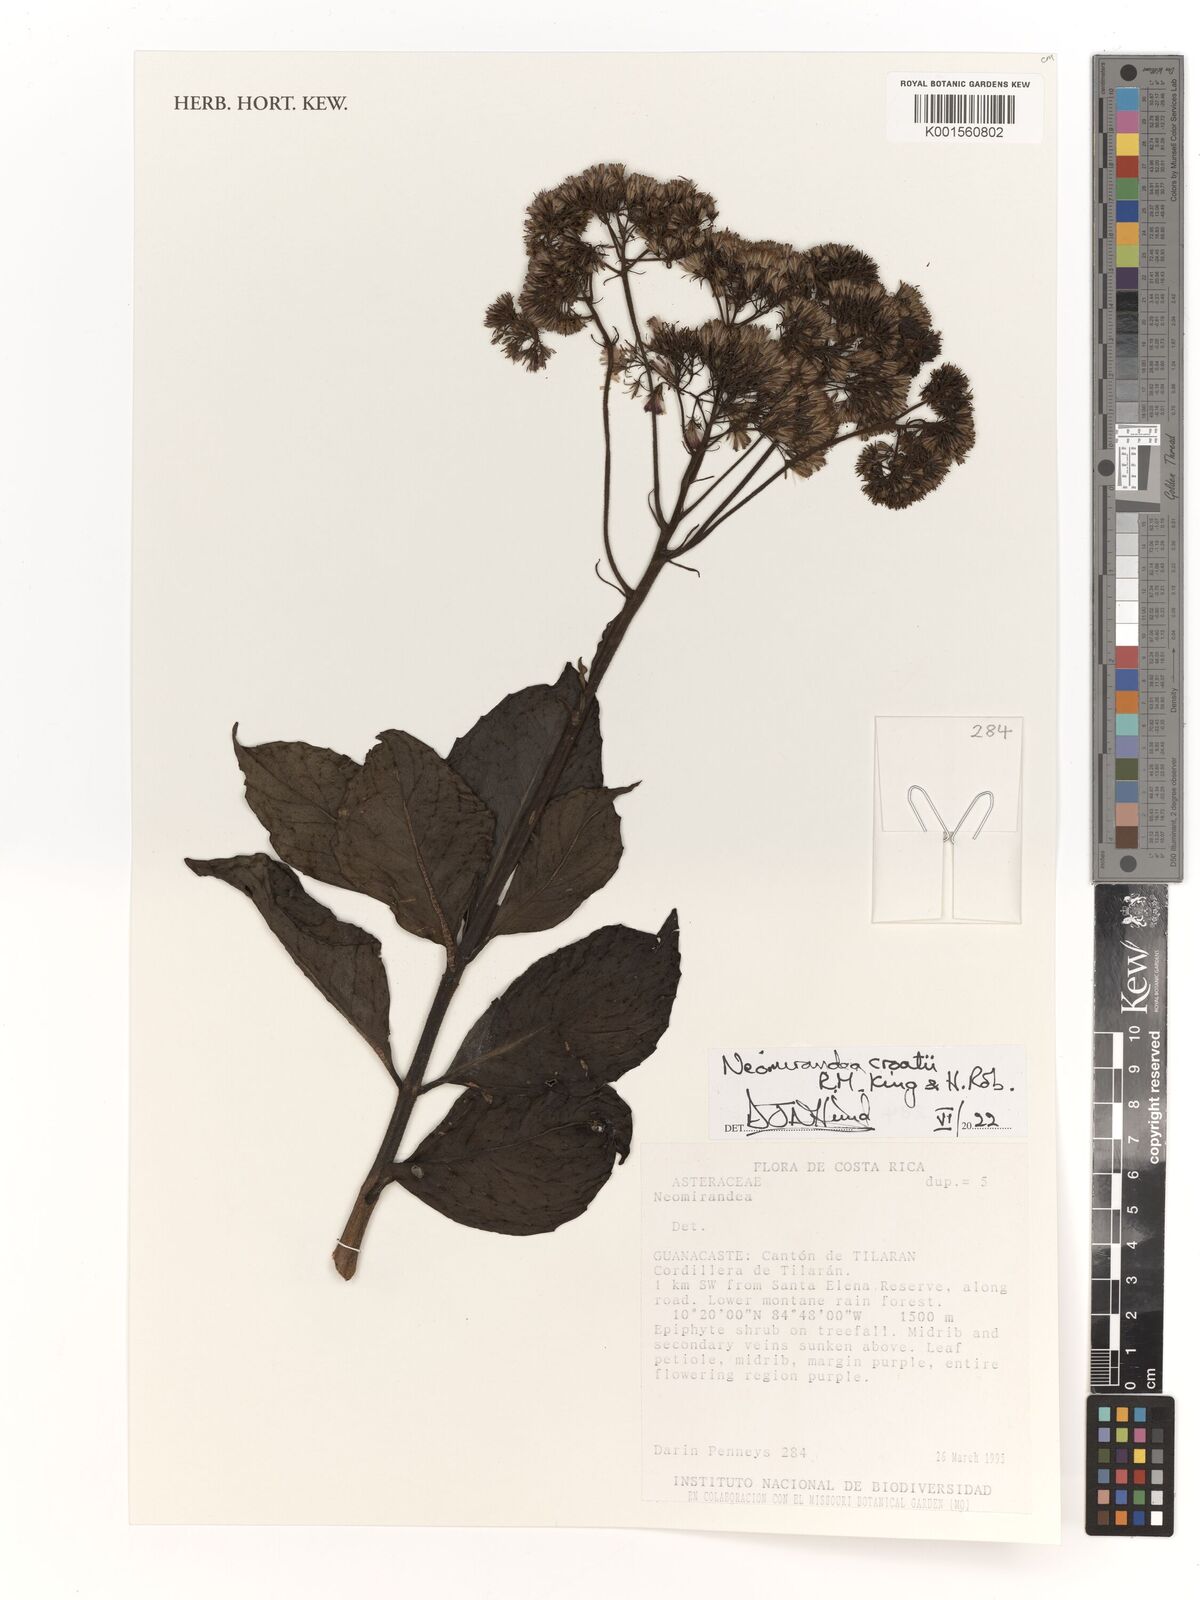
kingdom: Plantae
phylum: Tracheophyta
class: Magnoliopsida
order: Asterales
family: Asteraceae
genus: Neomirandea
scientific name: Neomirandea croatii
